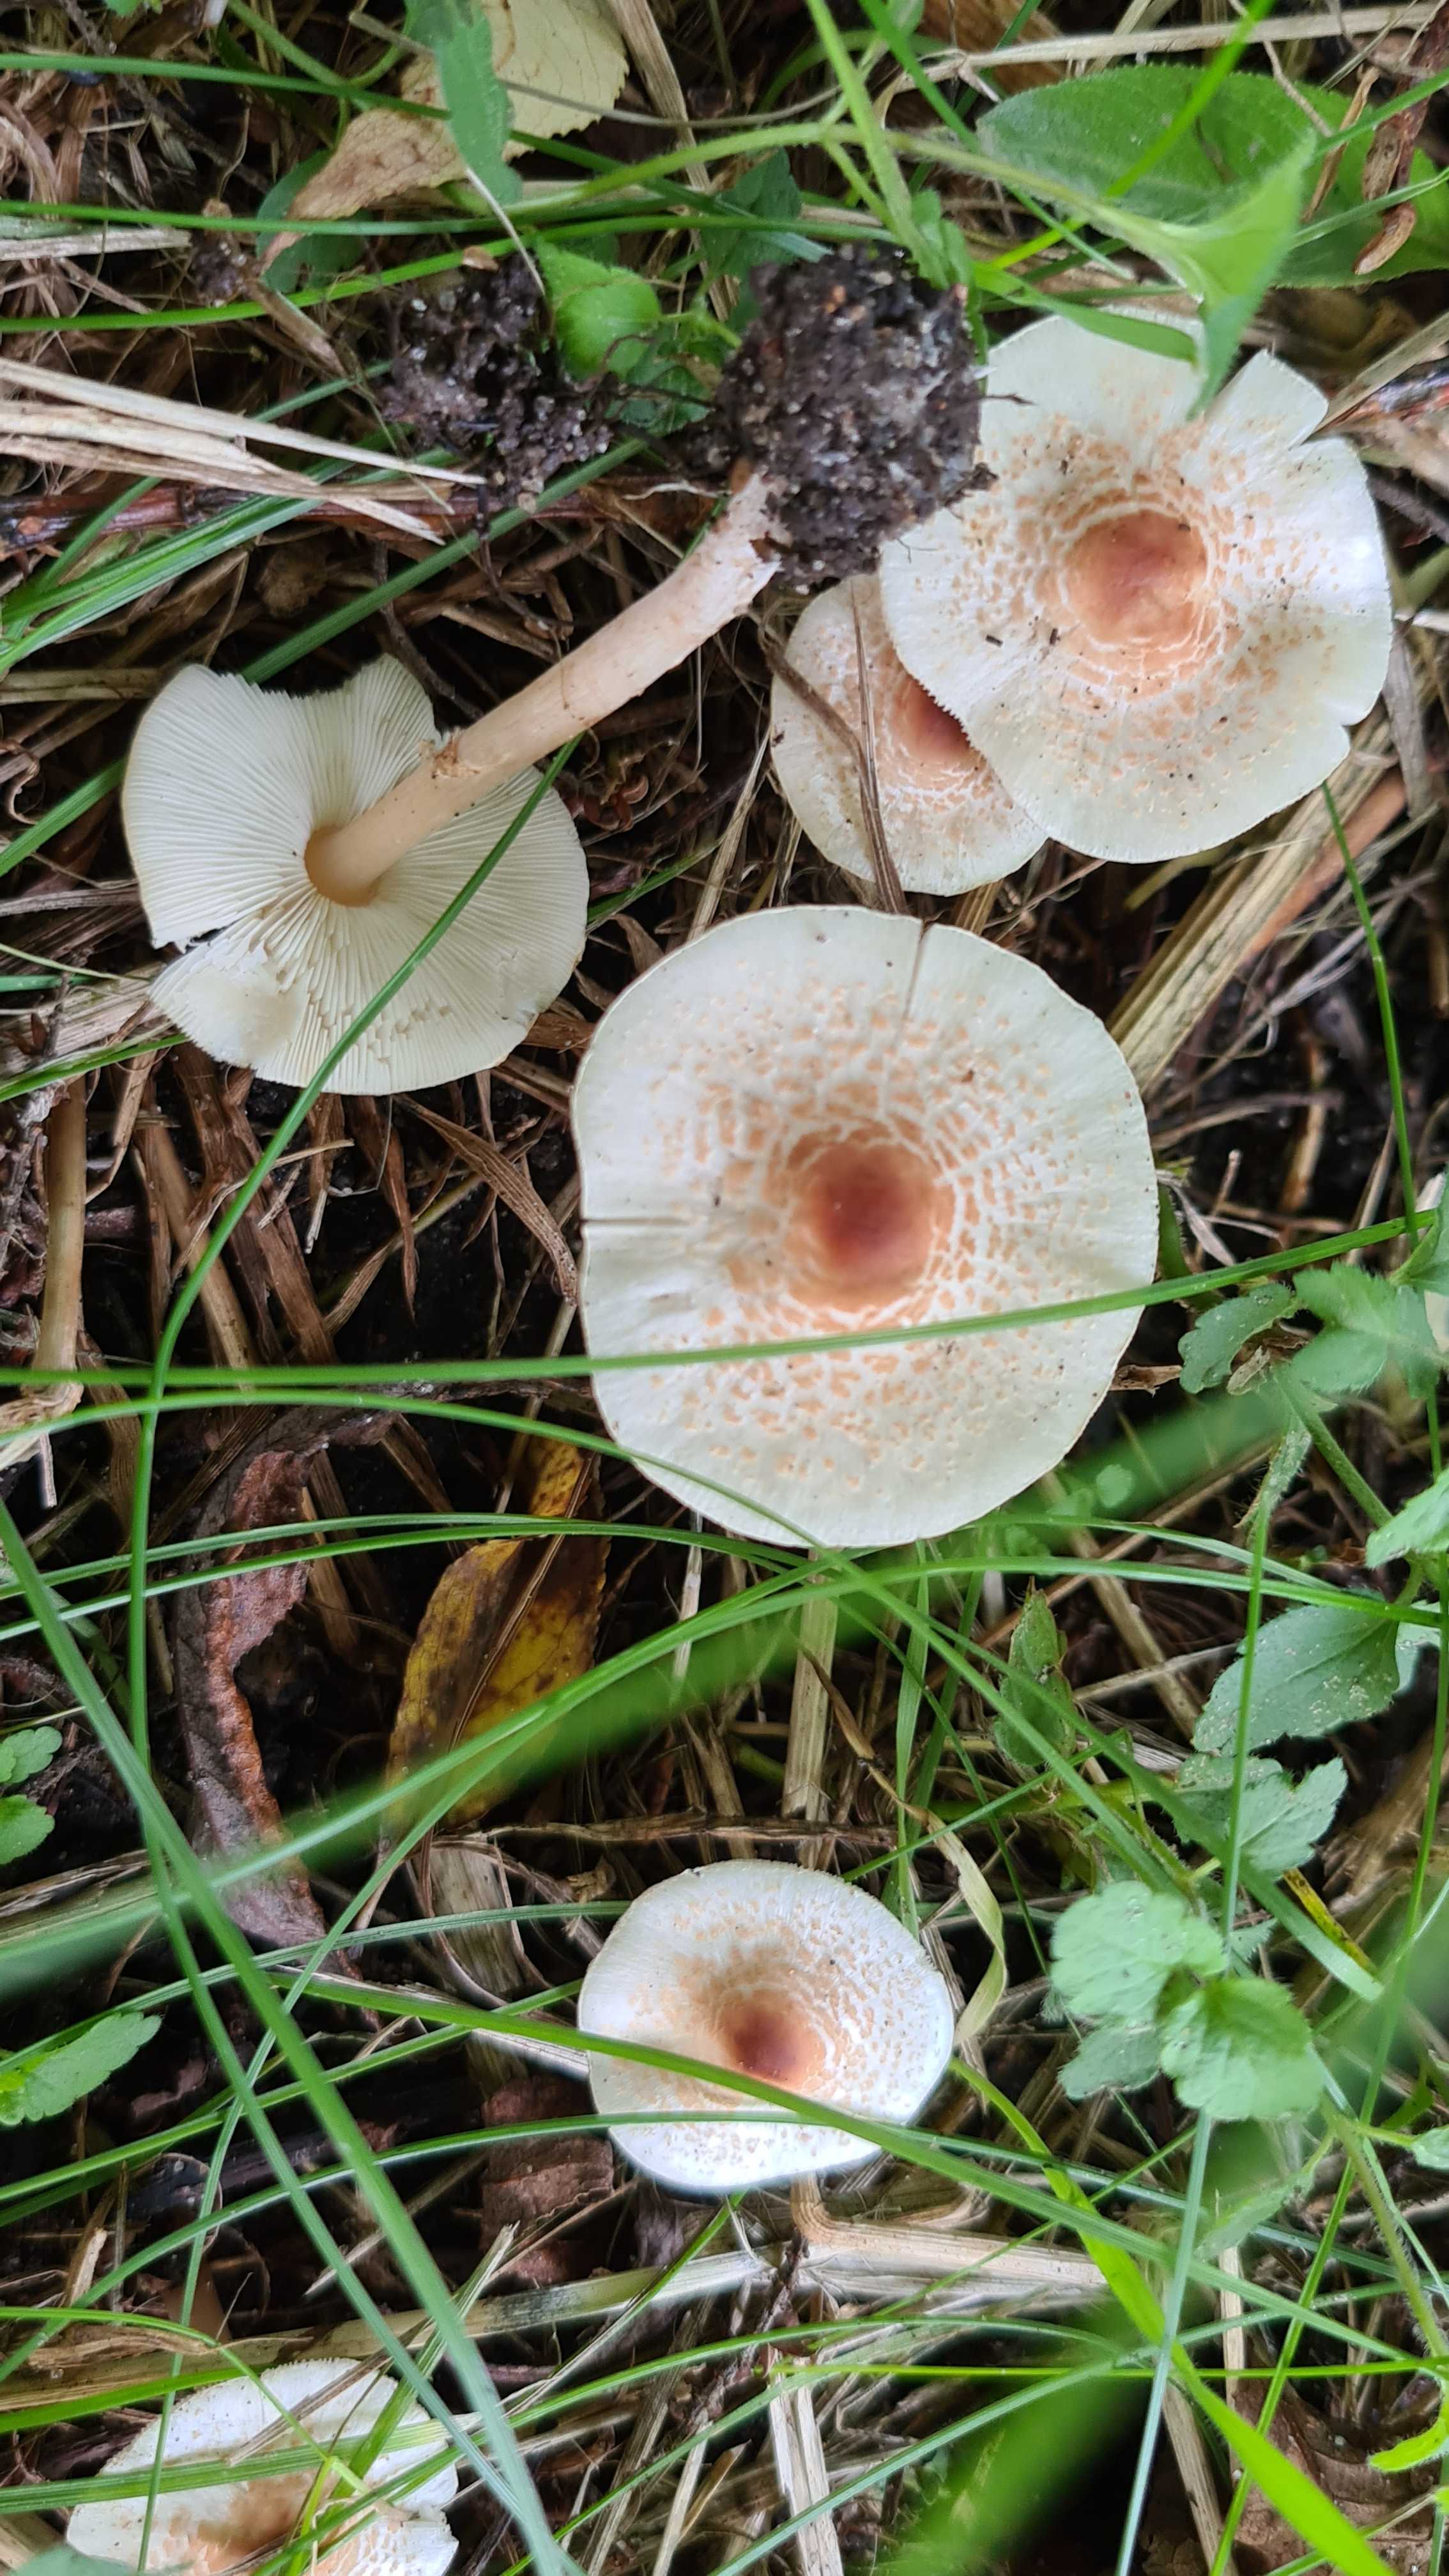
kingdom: Fungi
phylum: Basidiomycota
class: Agaricomycetes
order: Agaricales
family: Agaricaceae
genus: Lepiota
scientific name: Lepiota cristata
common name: stinkende parasolhat
